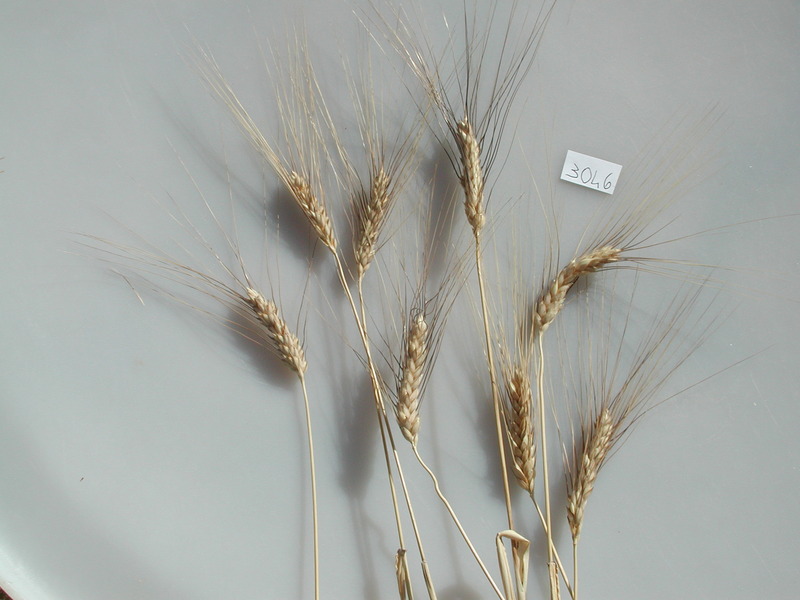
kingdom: Plantae
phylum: Tracheophyta
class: Liliopsida
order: Poales
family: Poaceae
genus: Triticum
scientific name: Triticum turgidum
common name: Wheat
